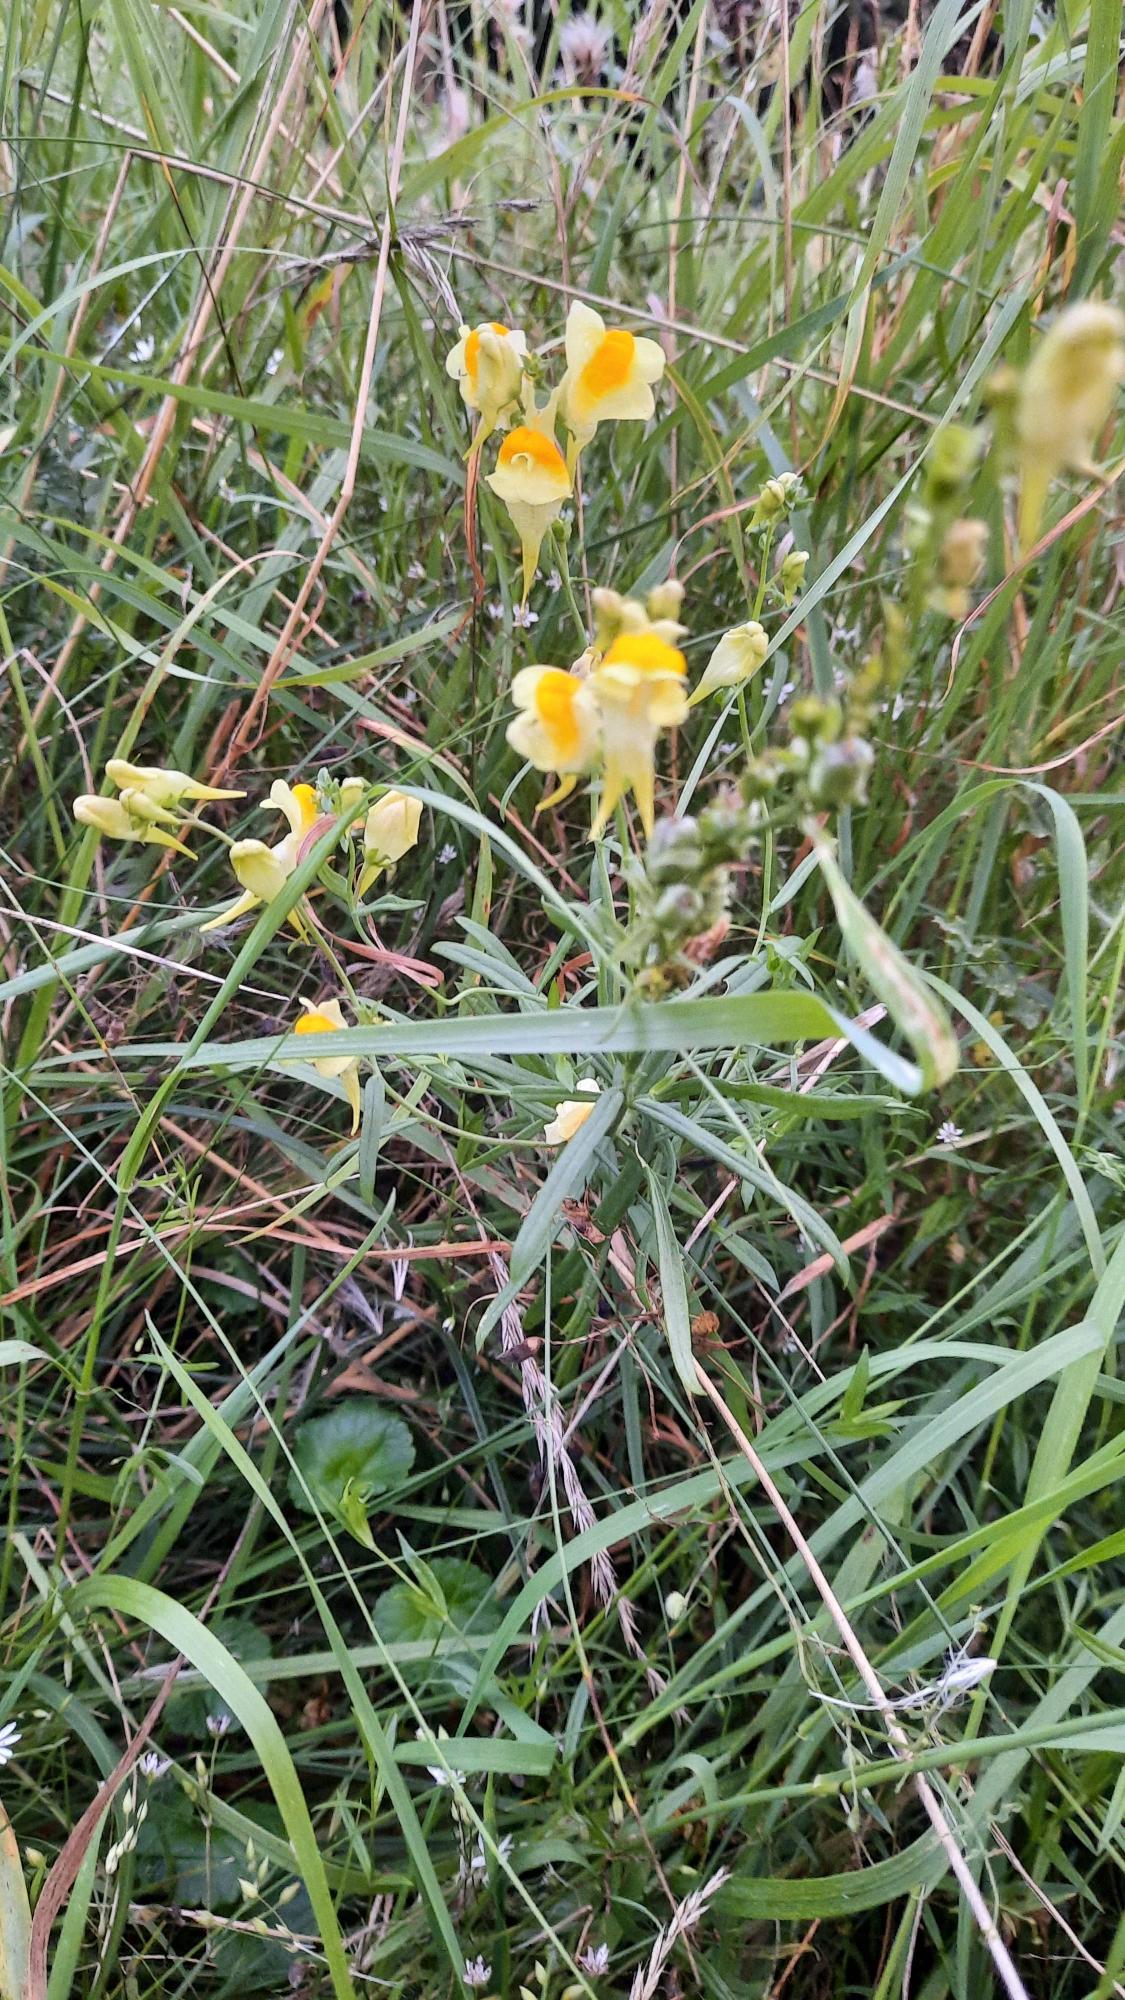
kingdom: Plantae
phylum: Tracheophyta
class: Magnoliopsida
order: Lamiales
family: Plantaginaceae
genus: Linaria
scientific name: Linaria vulgaris
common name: Almindelig torskemund
